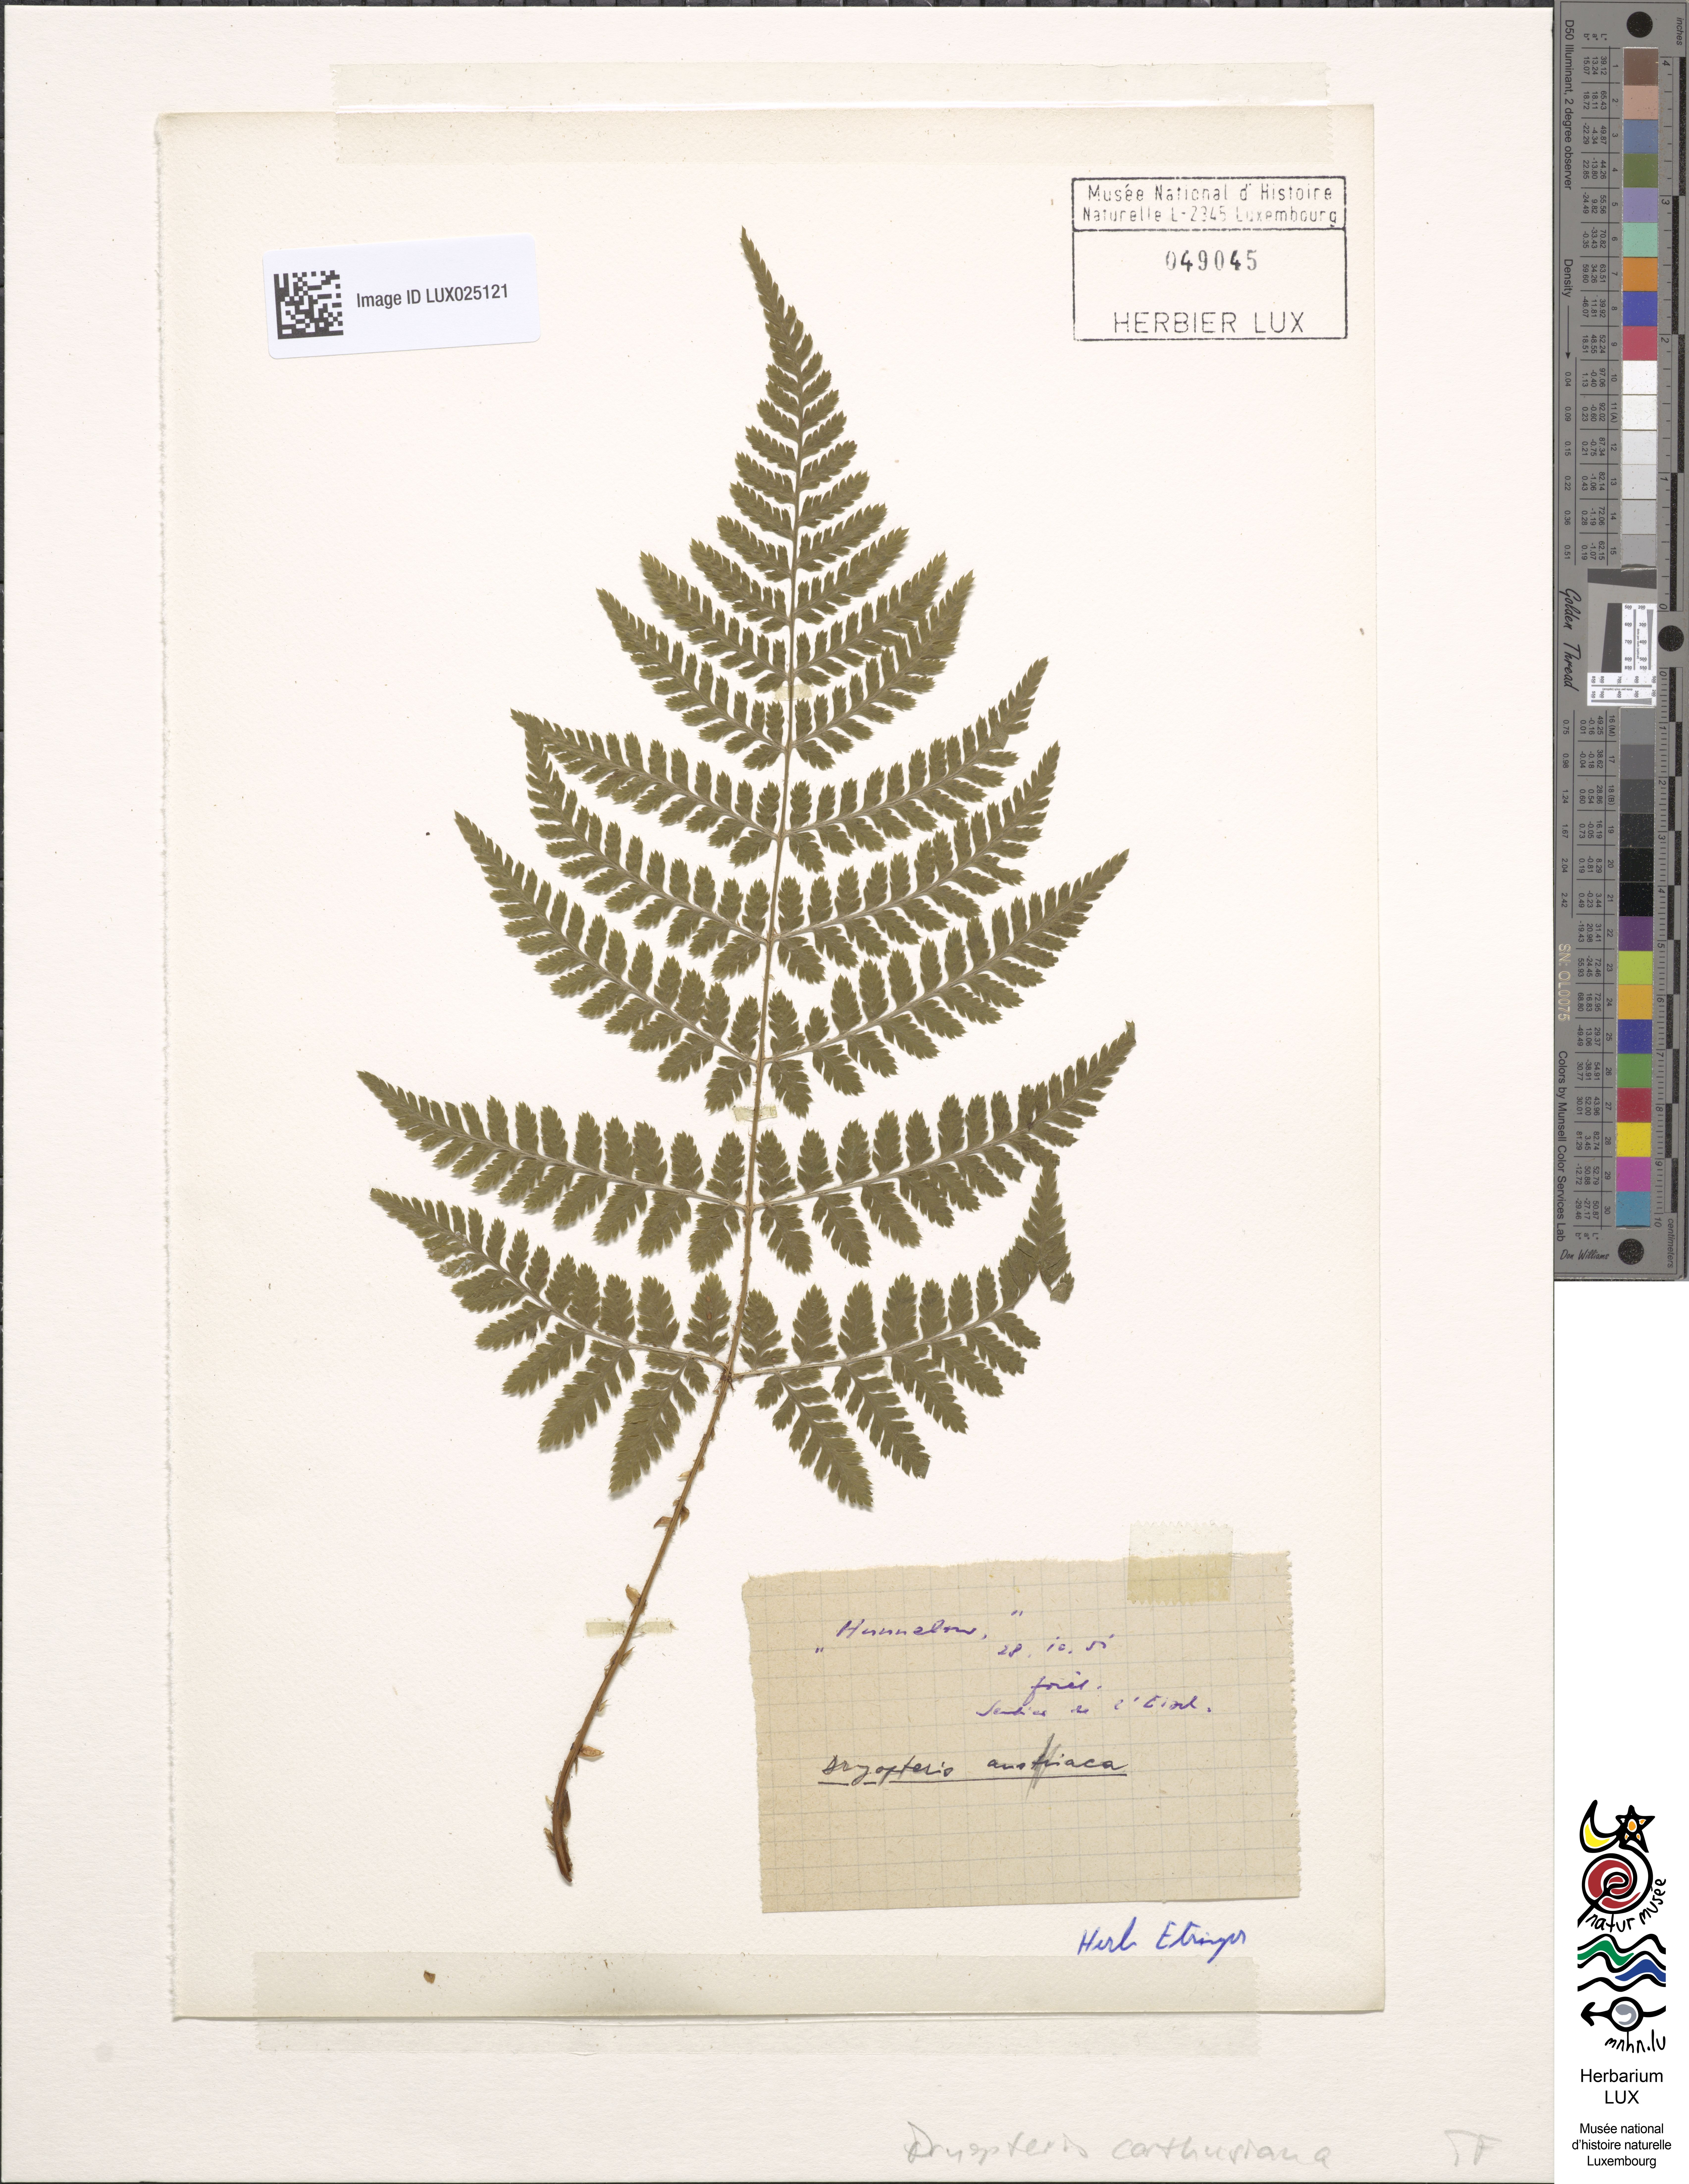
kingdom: Plantae
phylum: Tracheophyta
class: Polypodiopsida
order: Polypodiales
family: Dryopteridaceae
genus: Dryopteris
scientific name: Dryopteris dilatata
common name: Broad buckler-fern
